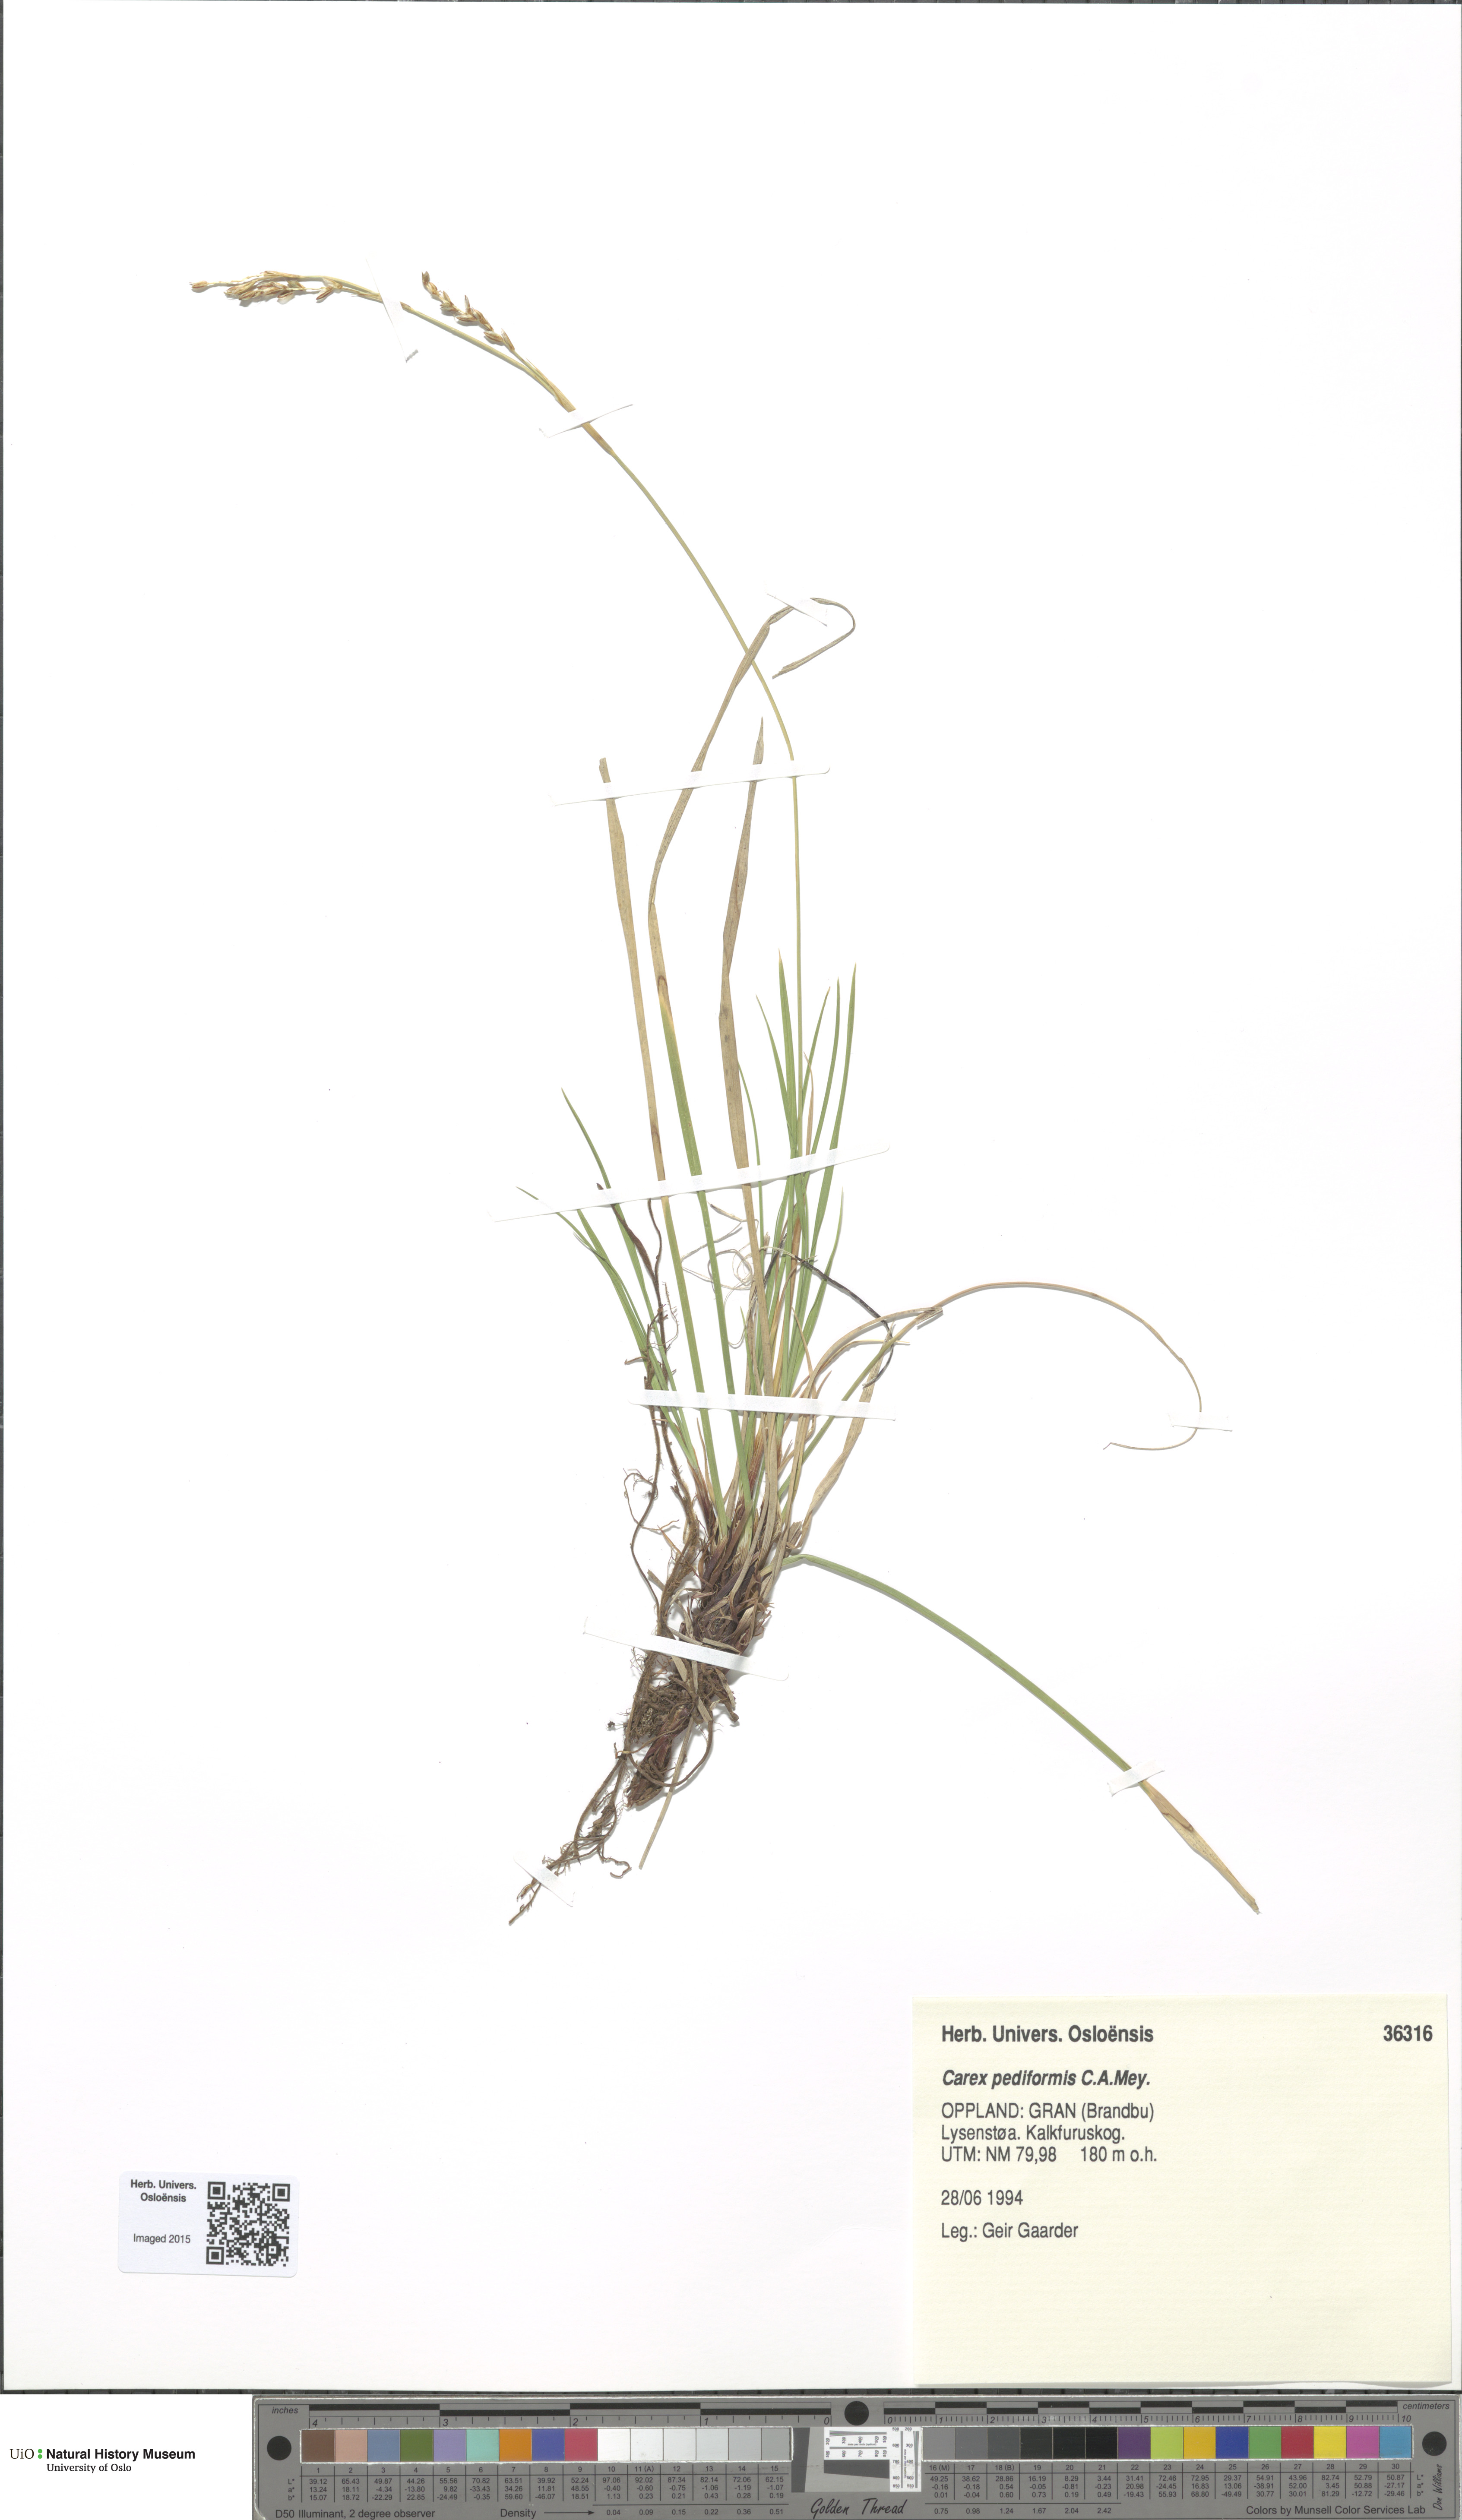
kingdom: Plantae
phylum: Tracheophyta
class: Liliopsida
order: Poales
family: Cyperaceae
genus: Carex
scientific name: Carex rhizina
